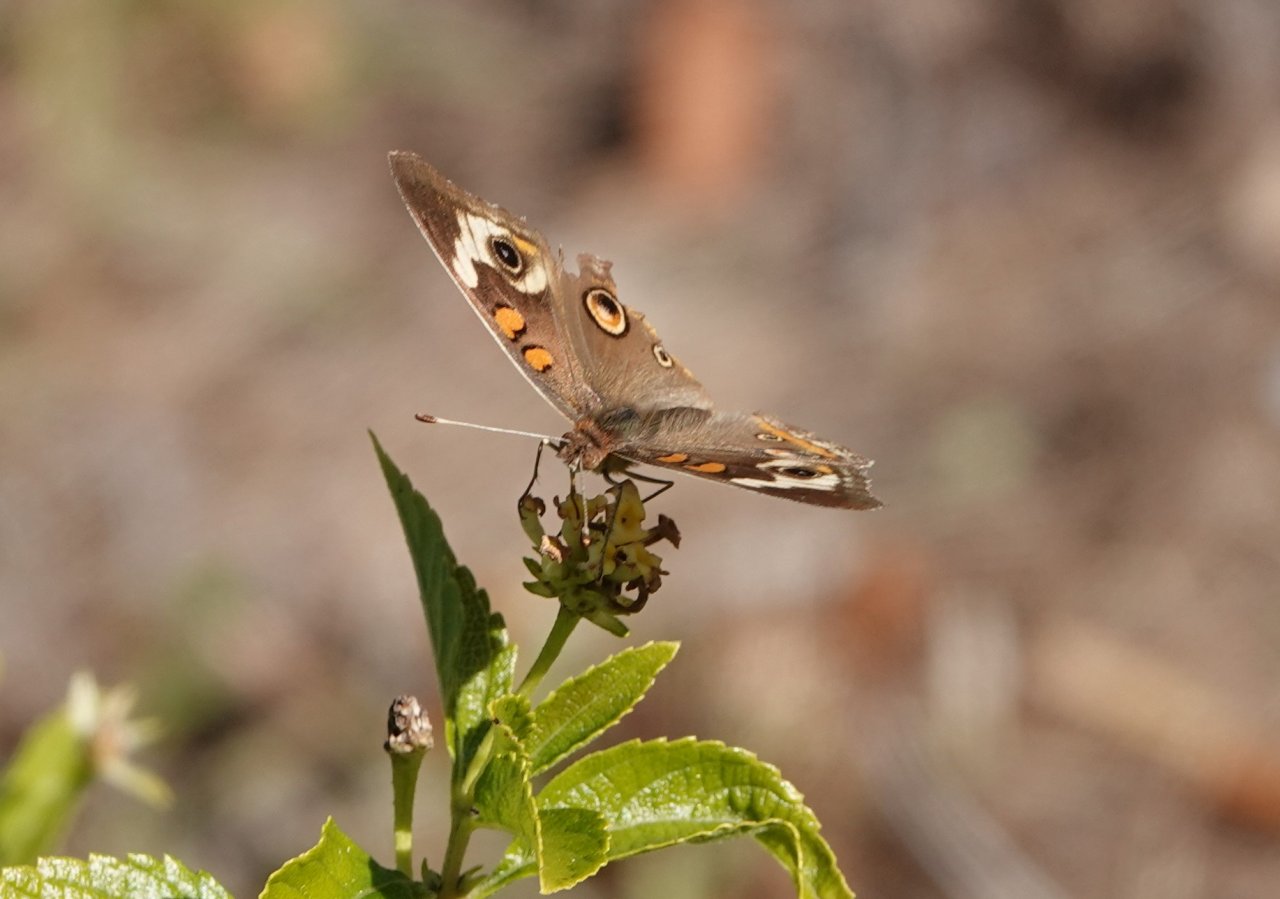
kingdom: Animalia
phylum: Arthropoda
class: Insecta
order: Lepidoptera
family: Nymphalidae
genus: Junonia
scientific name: Junonia coenia
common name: Common Buckeye
